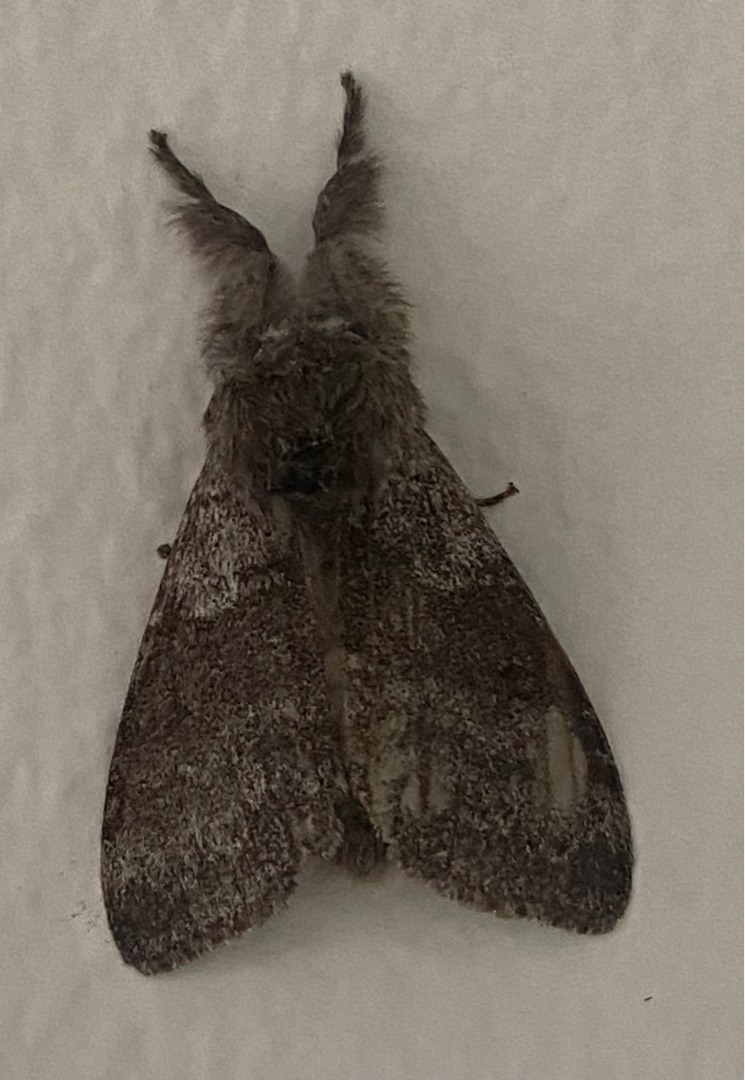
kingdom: Animalia
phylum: Arthropoda
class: Insecta
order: Lepidoptera
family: Erebidae
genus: Calliteara
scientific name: Calliteara pudibunda
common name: Bøgenonne
